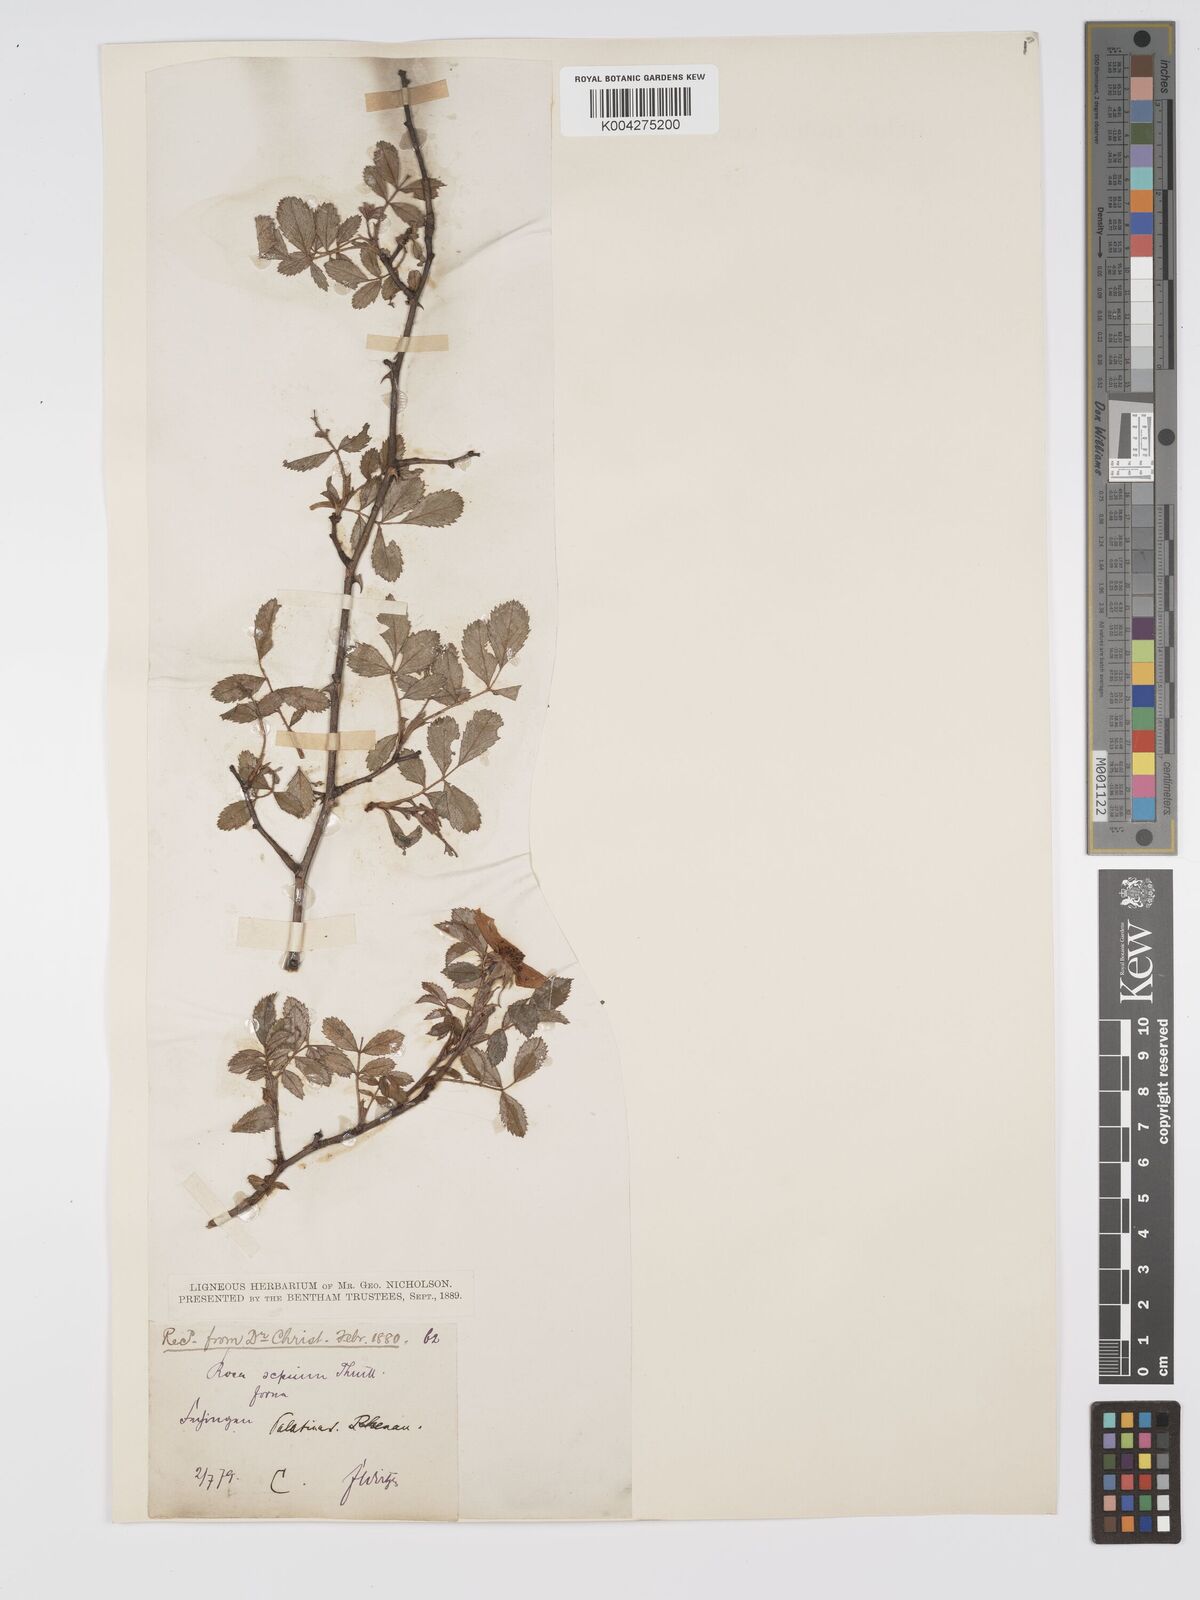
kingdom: Plantae
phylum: Tracheophyta
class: Magnoliopsida
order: Rosales
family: Rosaceae
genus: Rosa
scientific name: Rosa
